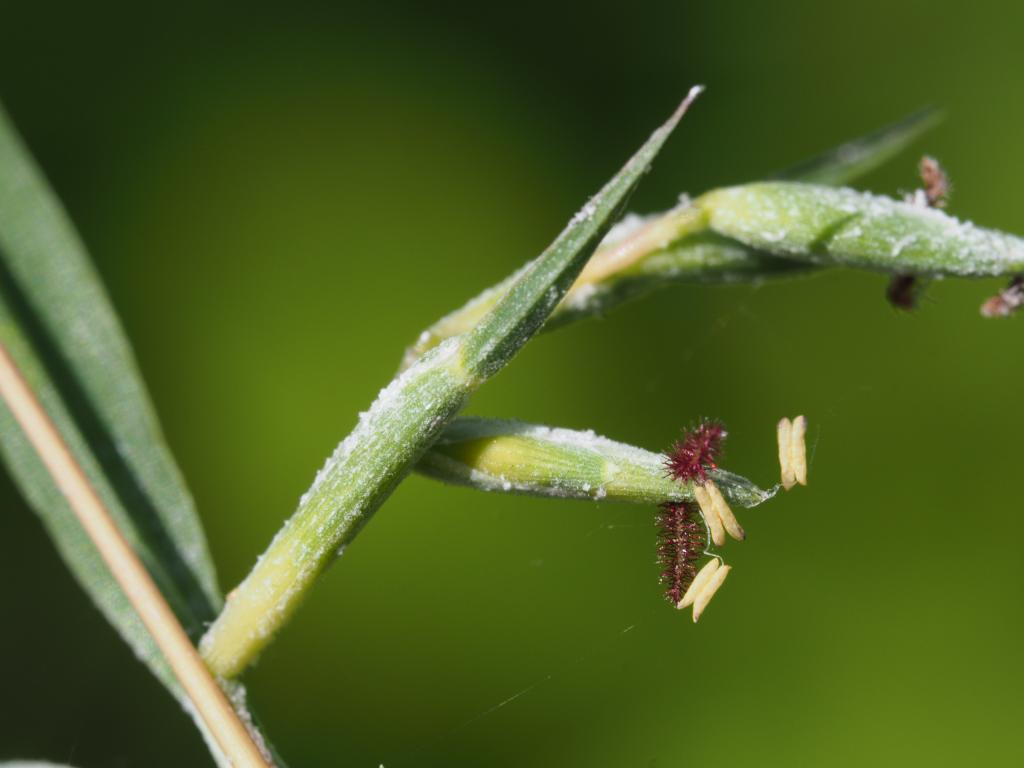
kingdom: Plantae
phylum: Tracheophyta
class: Liliopsida
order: Poales
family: Poaceae
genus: Apluda
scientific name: Apluda mutica
